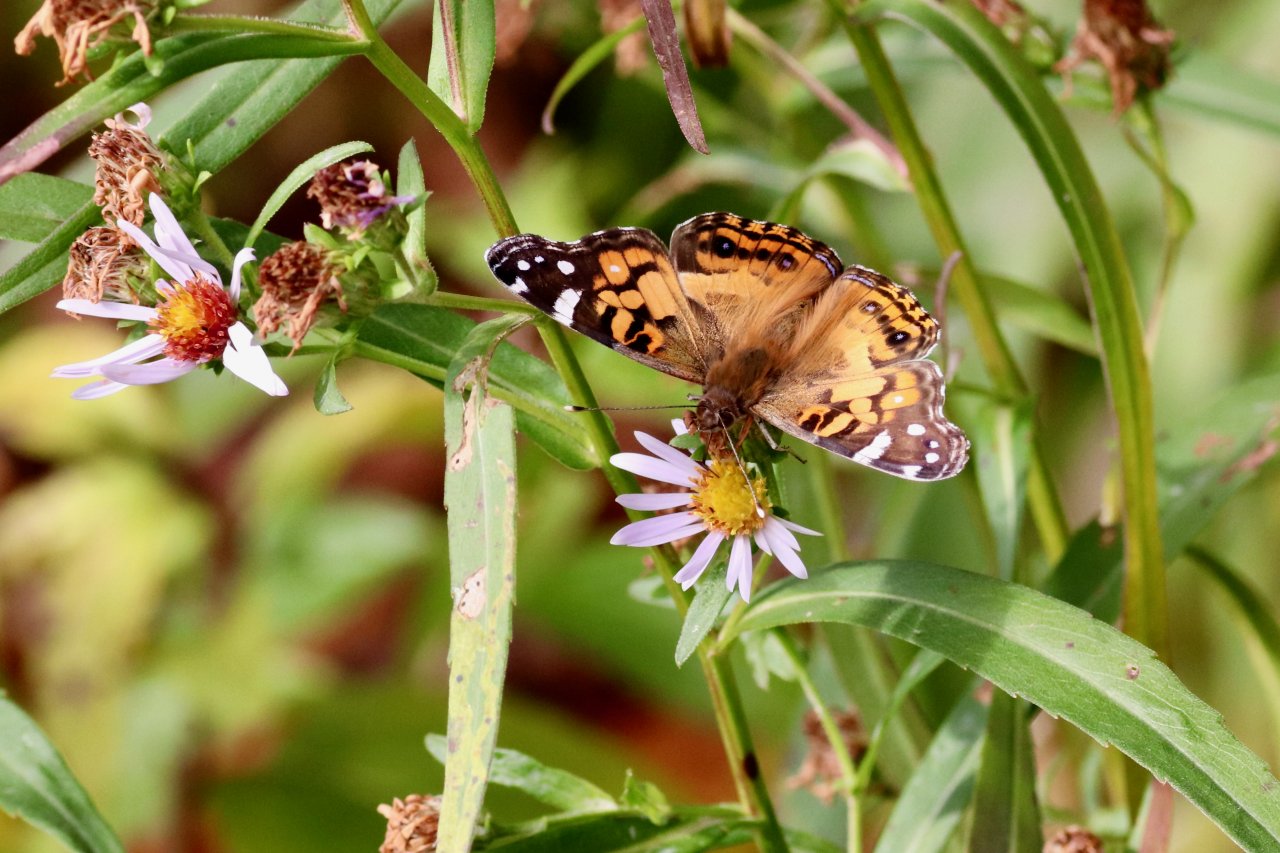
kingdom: Animalia
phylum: Arthropoda
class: Insecta
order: Lepidoptera
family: Nymphalidae
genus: Vanessa
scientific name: Vanessa virginiensis
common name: American Lady
